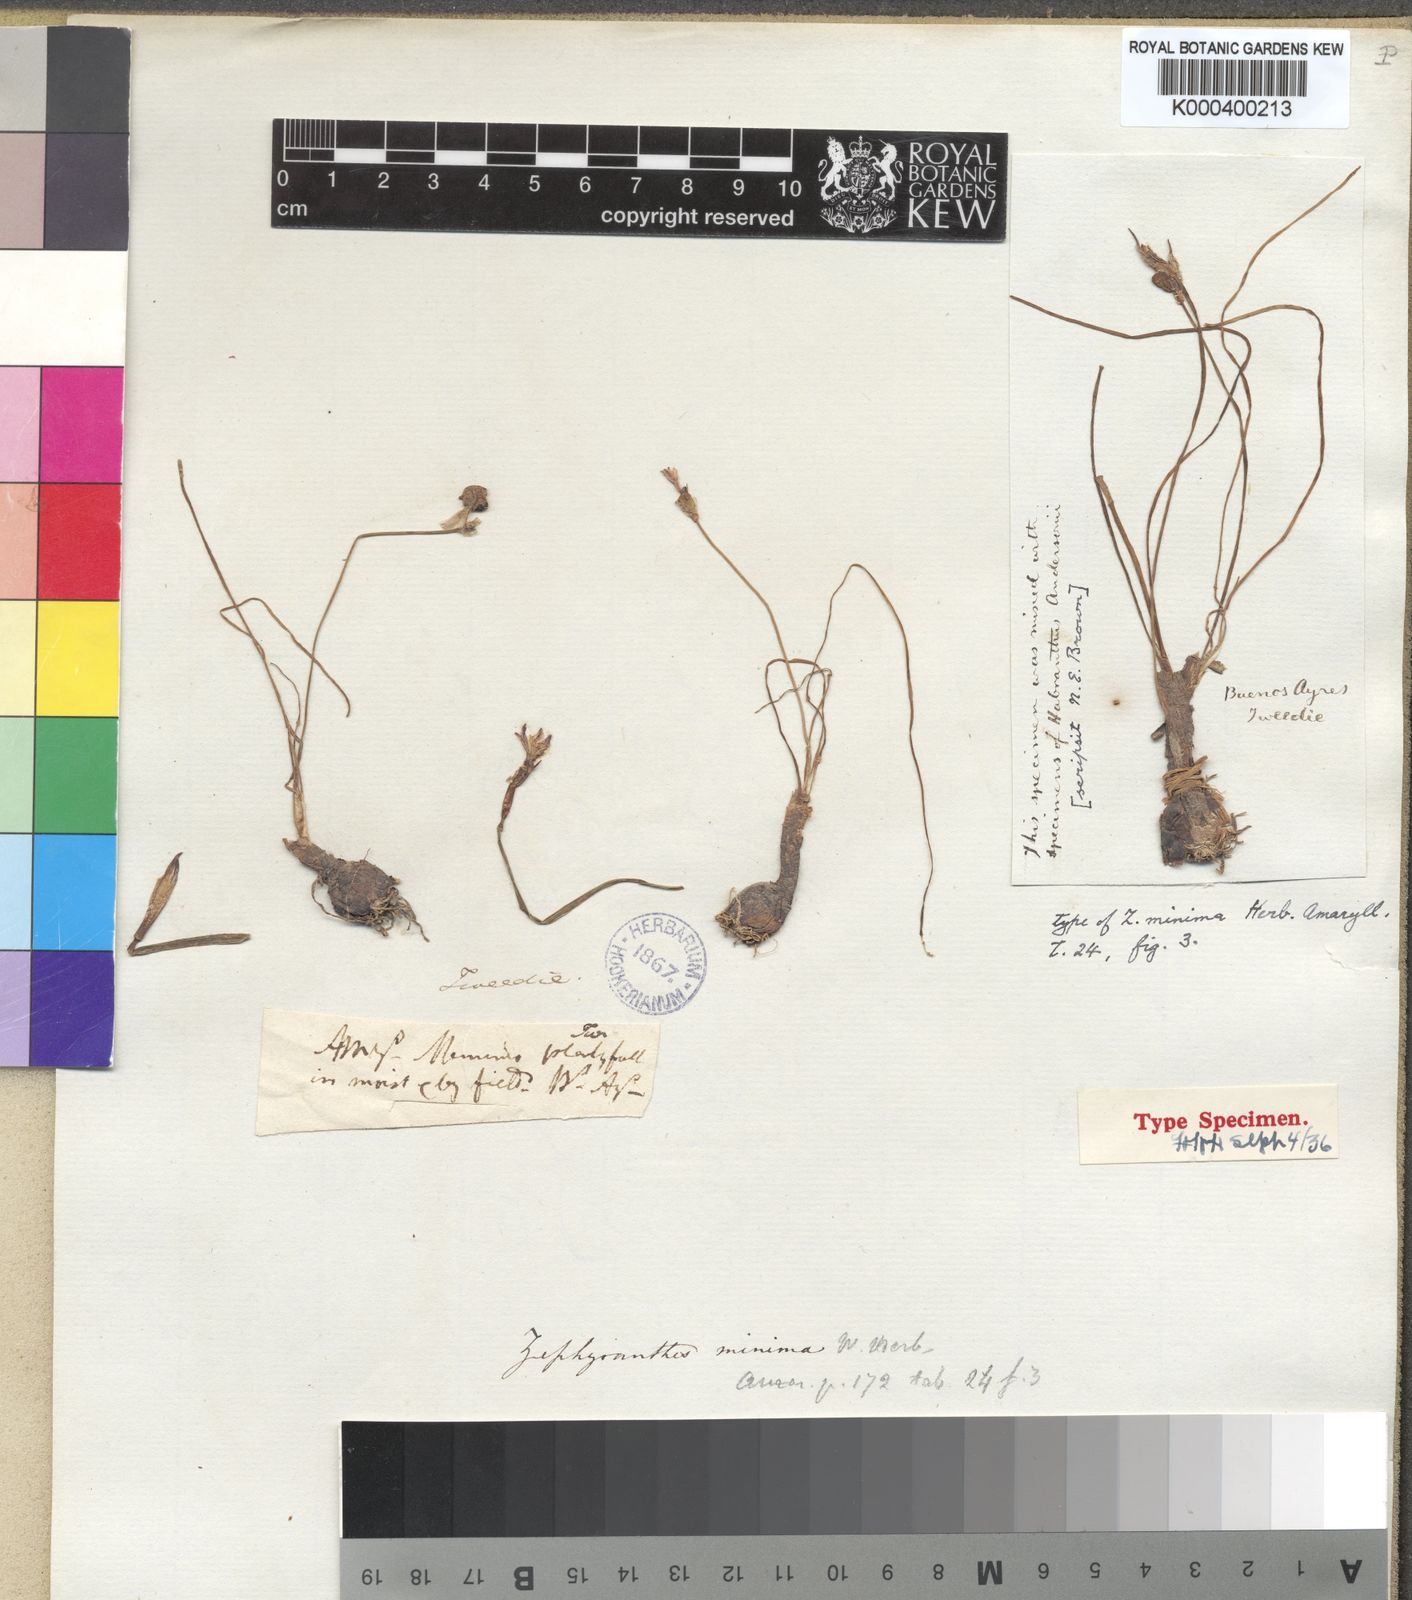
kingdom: Plantae
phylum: Tracheophyta
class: Liliopsida
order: Asparagales
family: Amaryllidaceae
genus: Zephyranthes
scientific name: Zephyranthes minima
